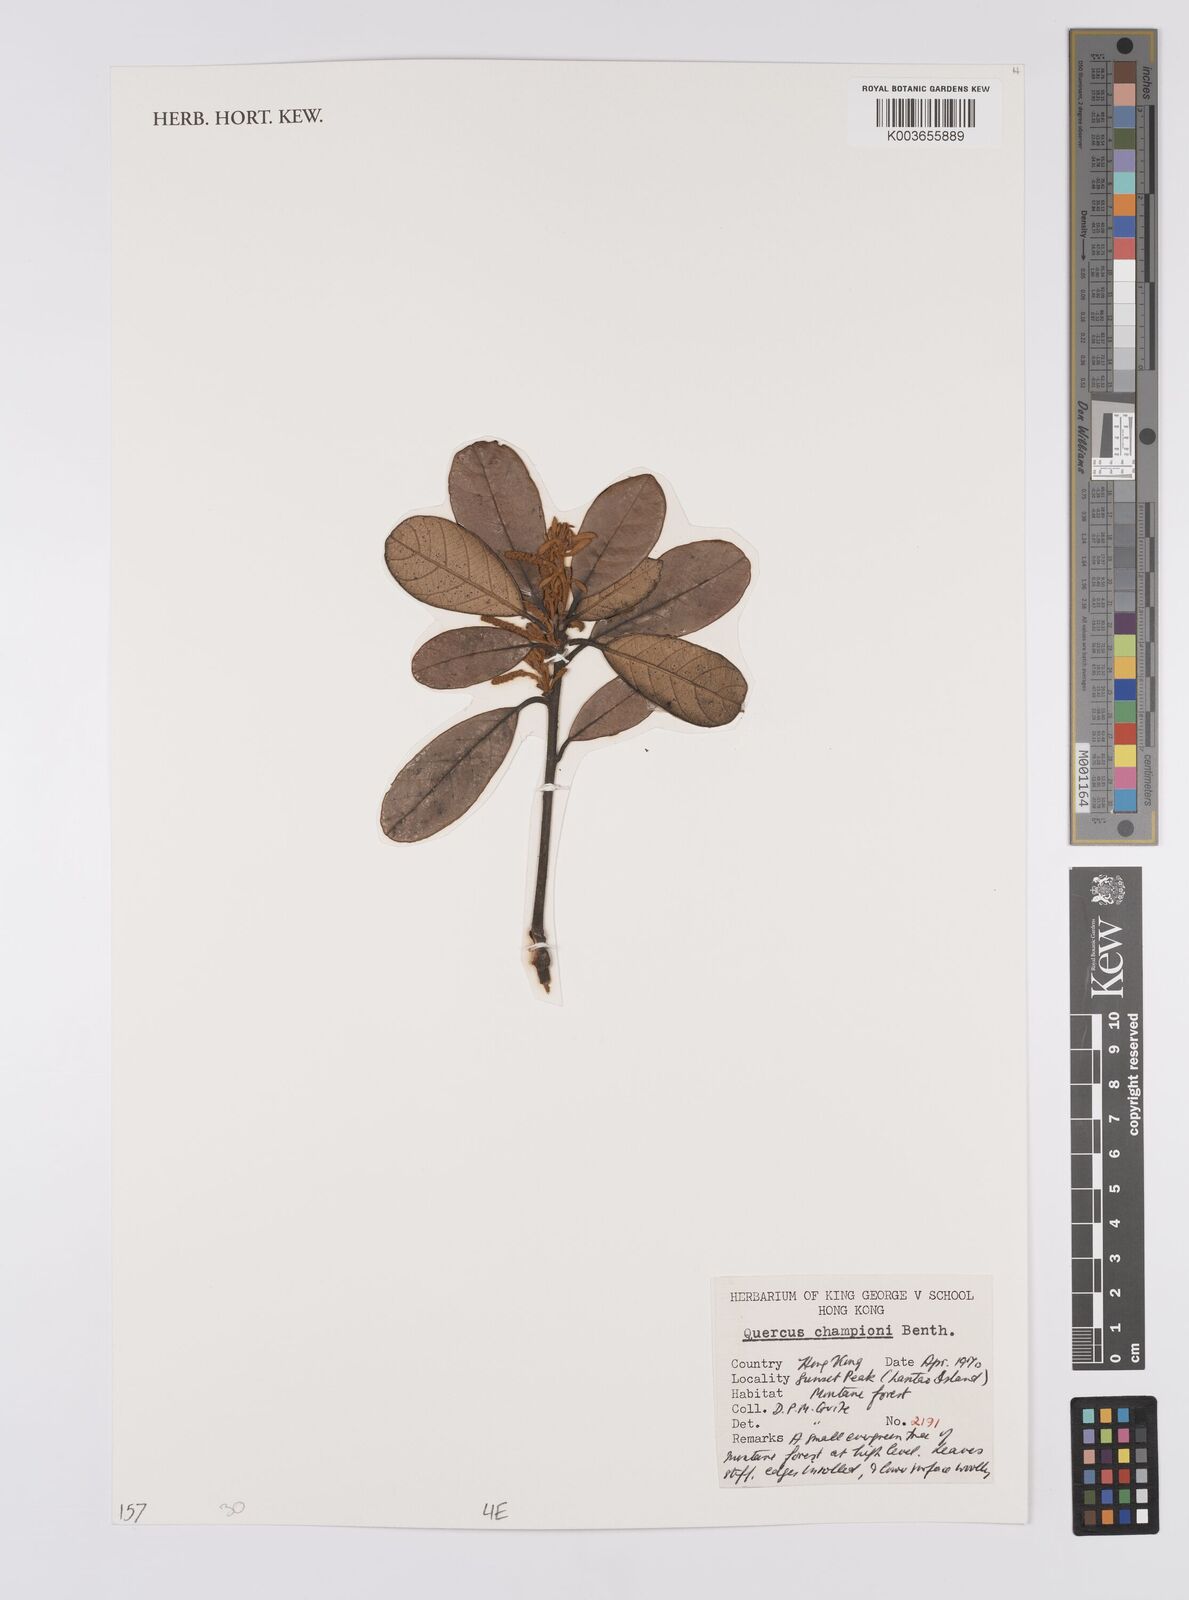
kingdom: Plantae
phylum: Tracheophyta
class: Magnoliopsida
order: Fagales
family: Fagaceae
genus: Quercus
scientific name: Quercus championii
